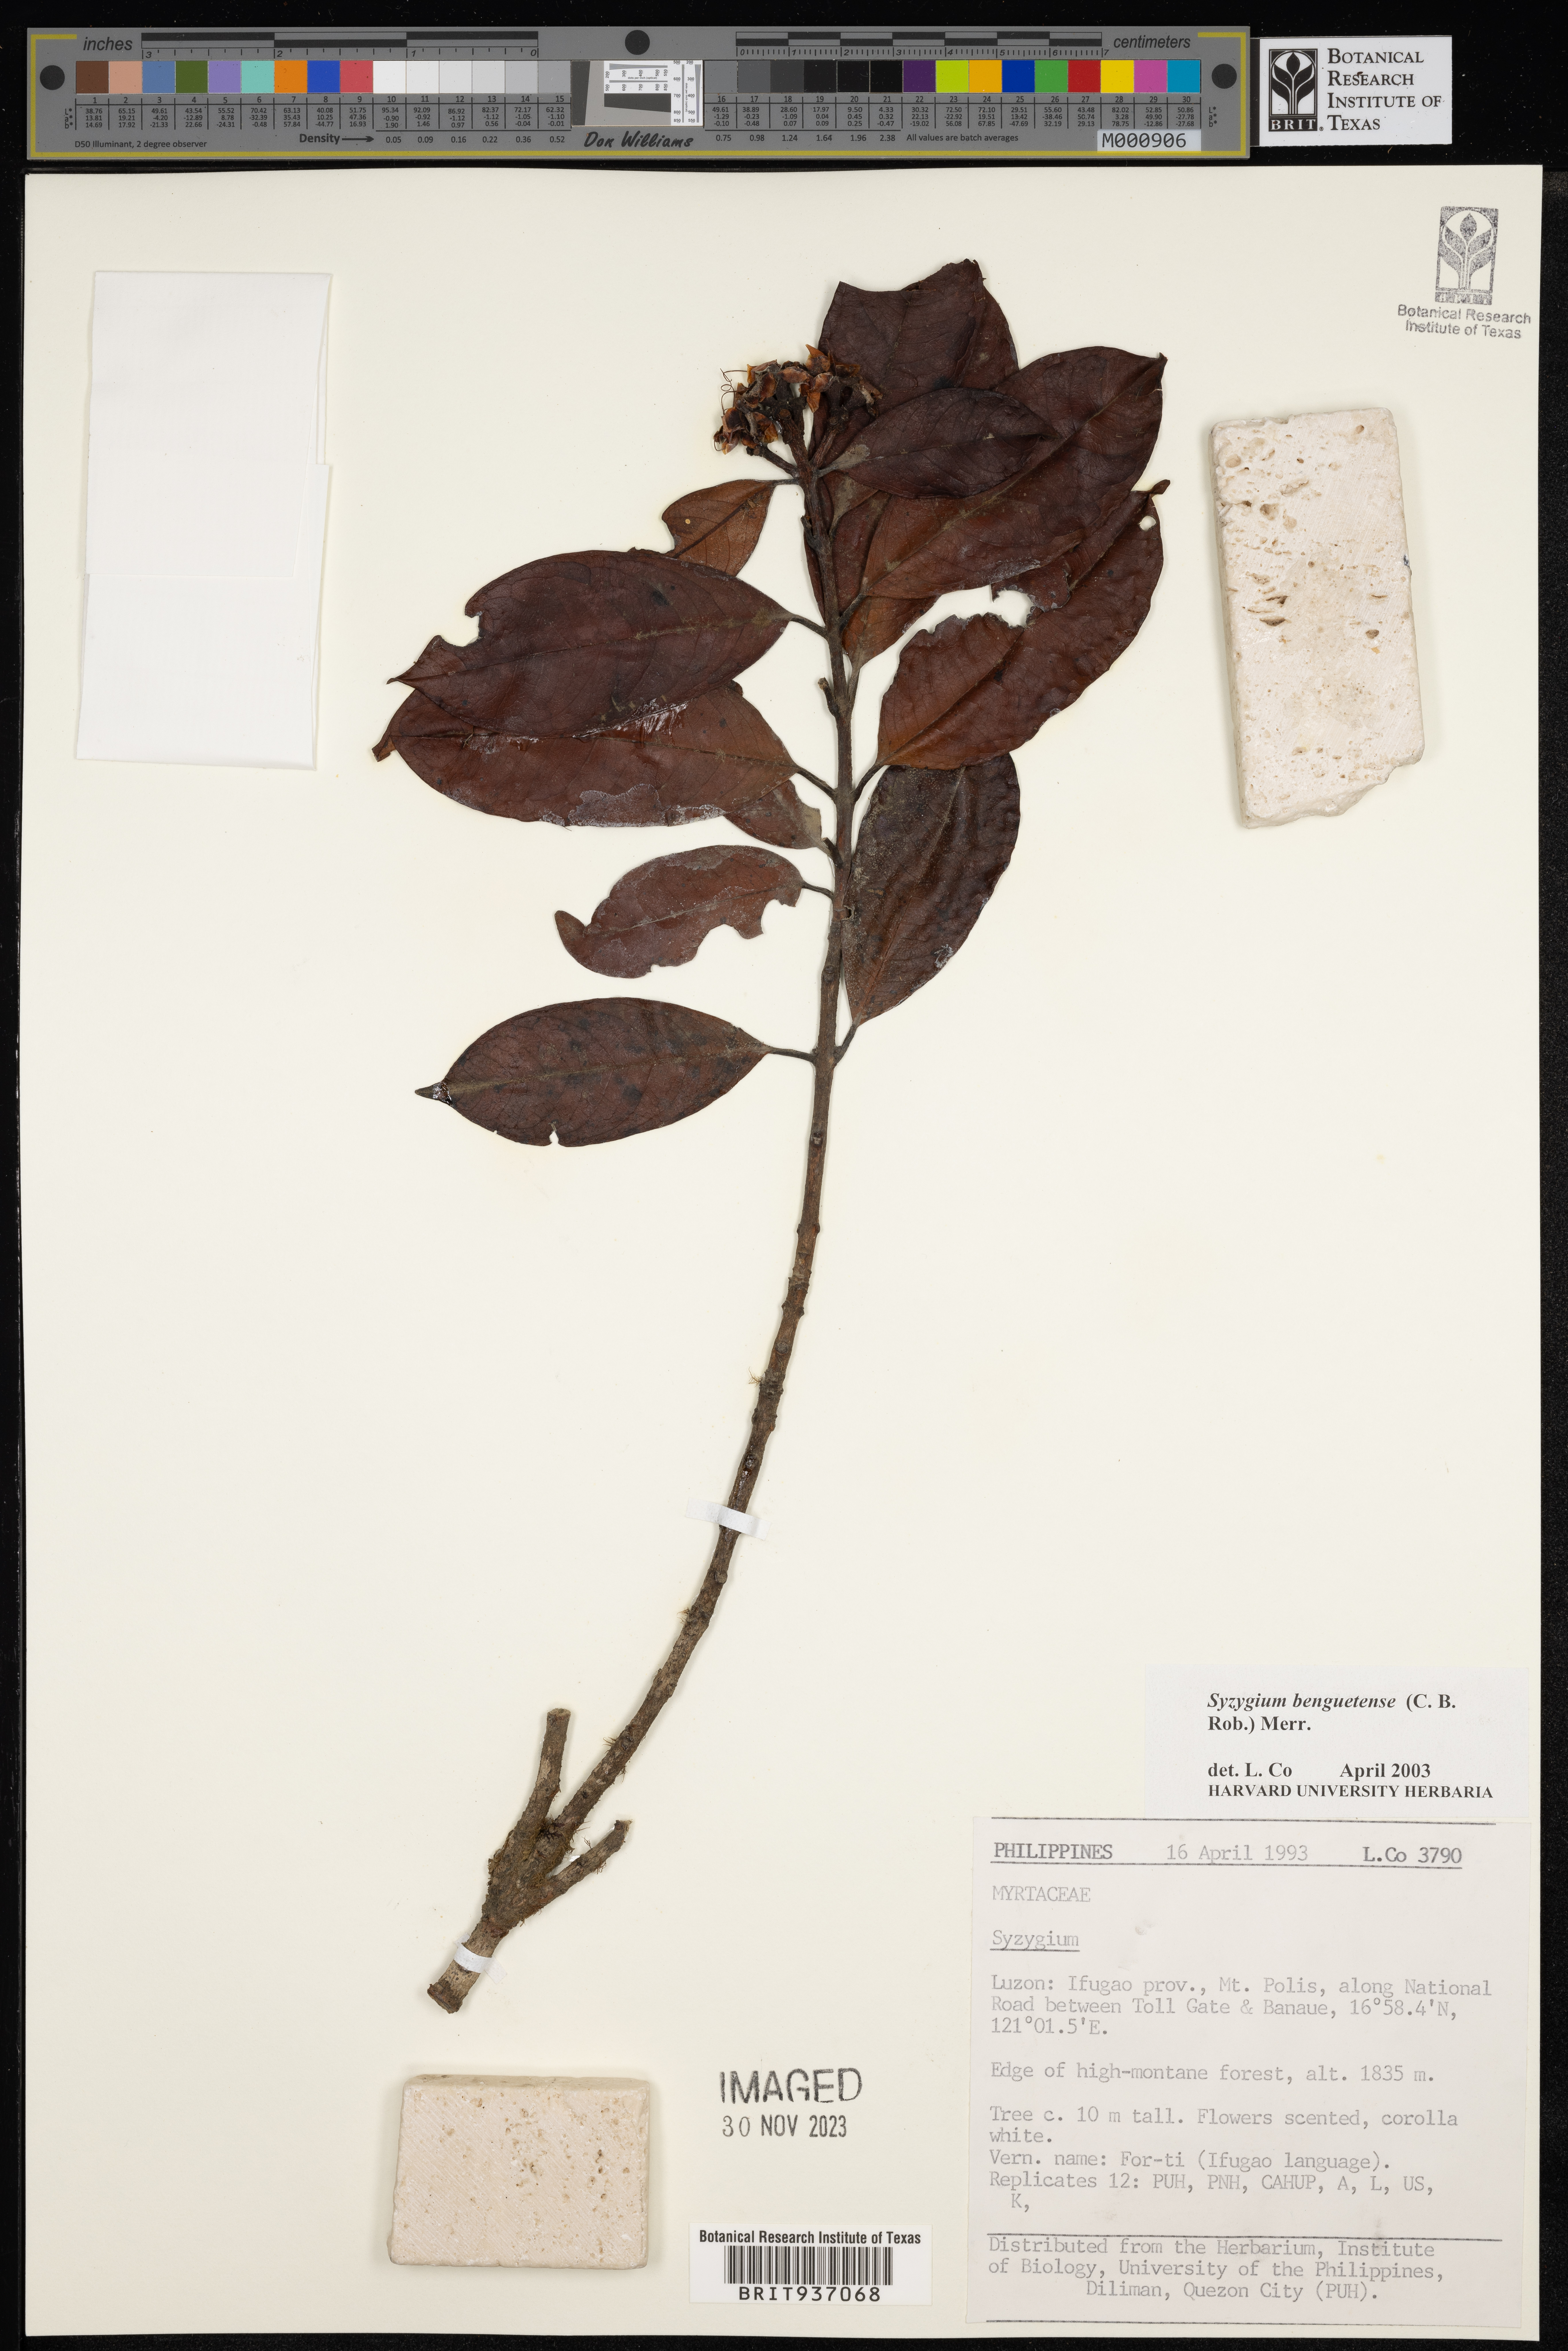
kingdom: Plantae
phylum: Tracheophyta
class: Magnoliopsida
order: Myrtales
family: Myrtaceae
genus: Syzygium
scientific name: Syzygium
